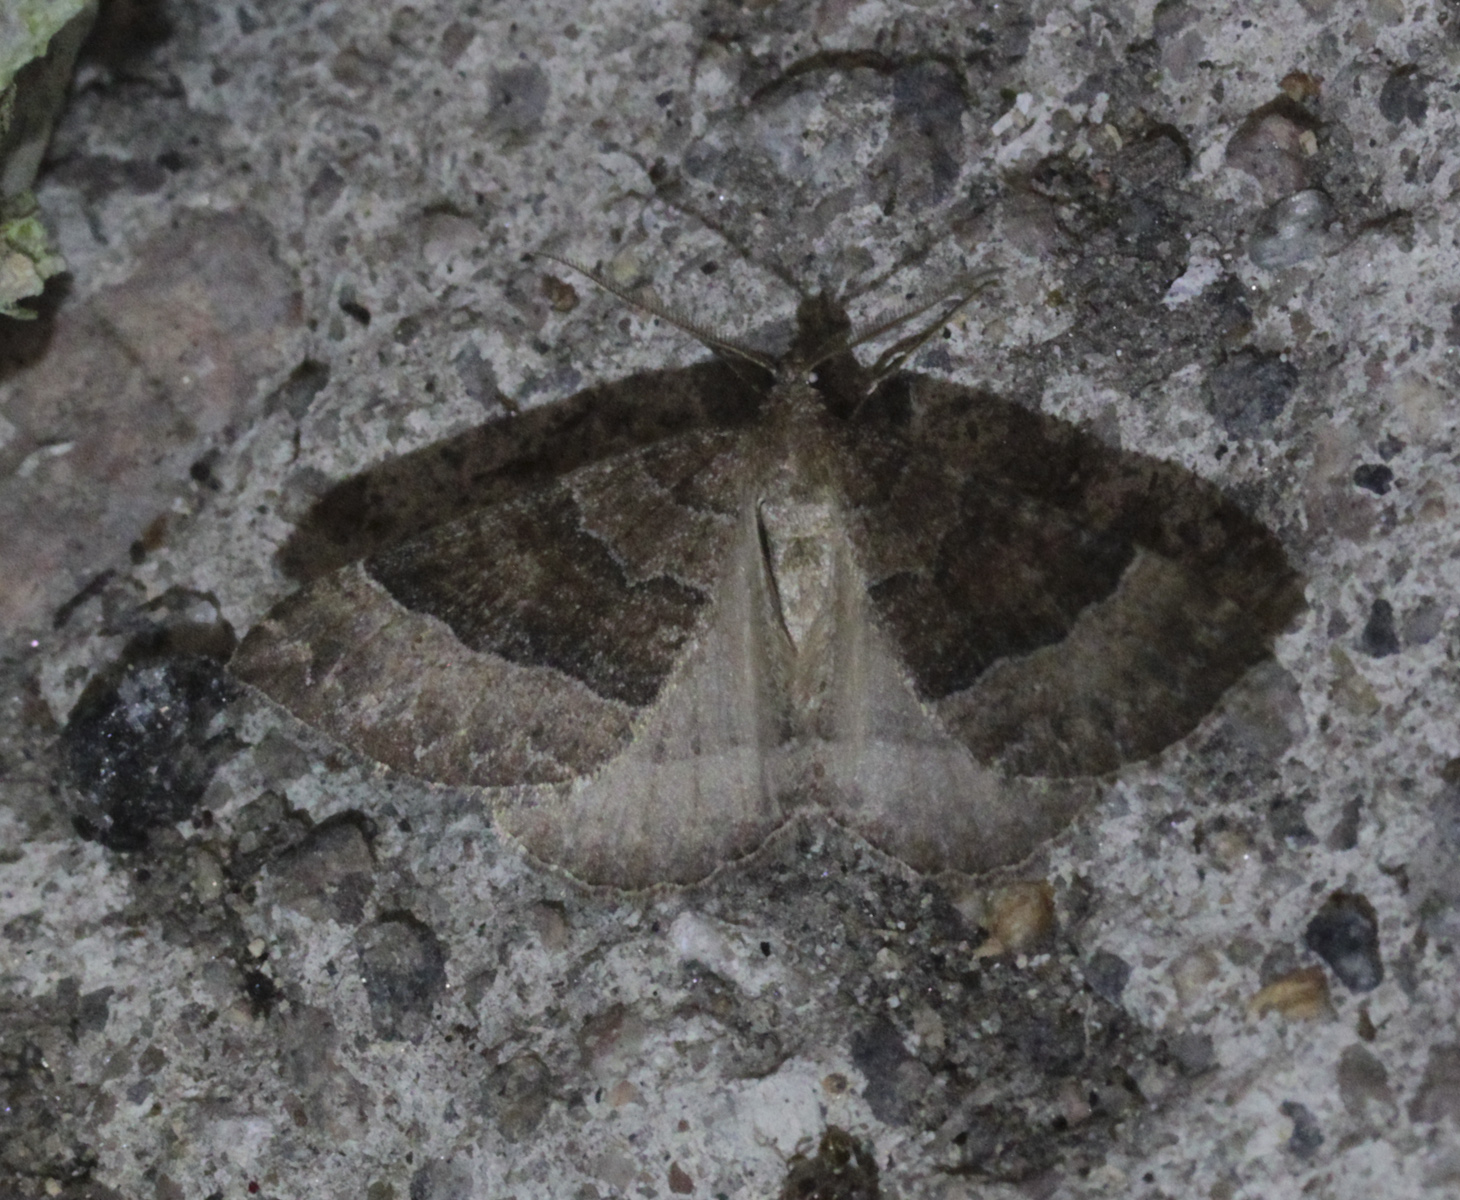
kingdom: Animalia
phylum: Arthropoda
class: Insecta
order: Lepidoptera
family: Geometridae
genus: Larentia
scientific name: Larentia clavaria
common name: Mallow
